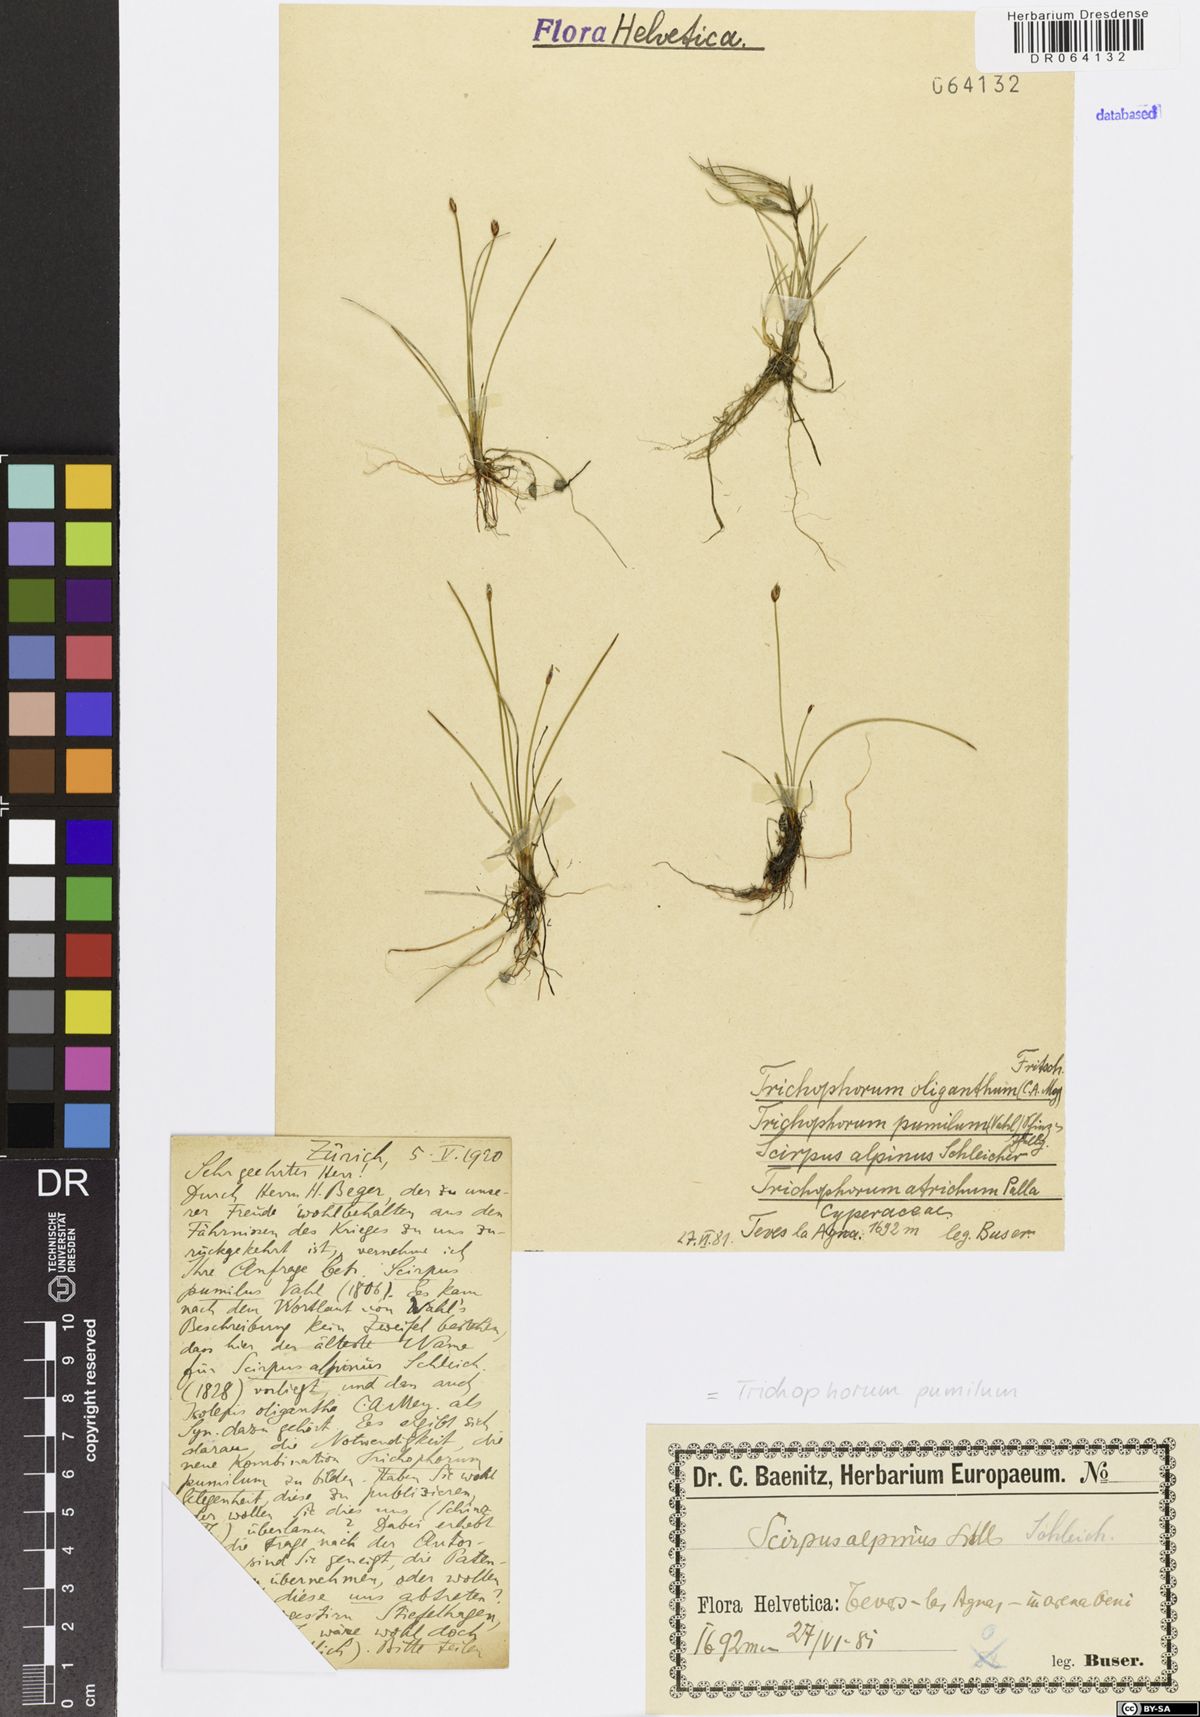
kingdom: Plantae
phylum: Tracheophyta
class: Liliopsida
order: Poales
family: Cyperaceae
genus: Trichophorum
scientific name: Trichophorum pumilum
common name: Rolland's bulrush
